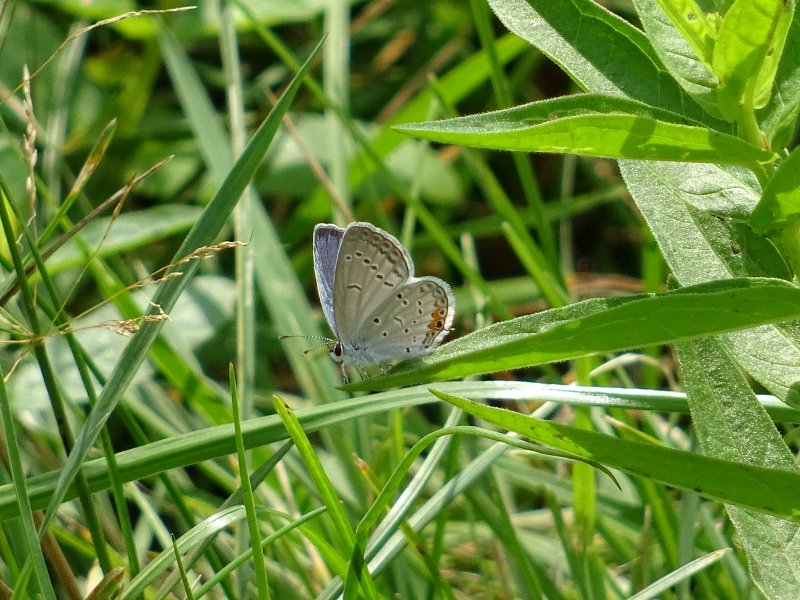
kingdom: Animalia
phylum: Arthropoda
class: Insecta
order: Lepidoptera
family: Lycaenidae
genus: Elkalyce
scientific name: Elkalyce comyntas
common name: Eastern Tailed-Blue
